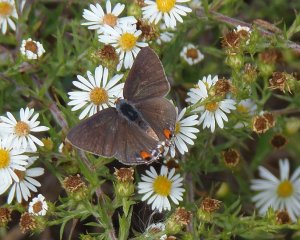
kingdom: Animalia
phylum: Arthropoda
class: Insecta
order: Lepidoptera
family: Lycaenidae
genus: Strymon
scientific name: Strymon melinus
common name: Gray Hairstreak
